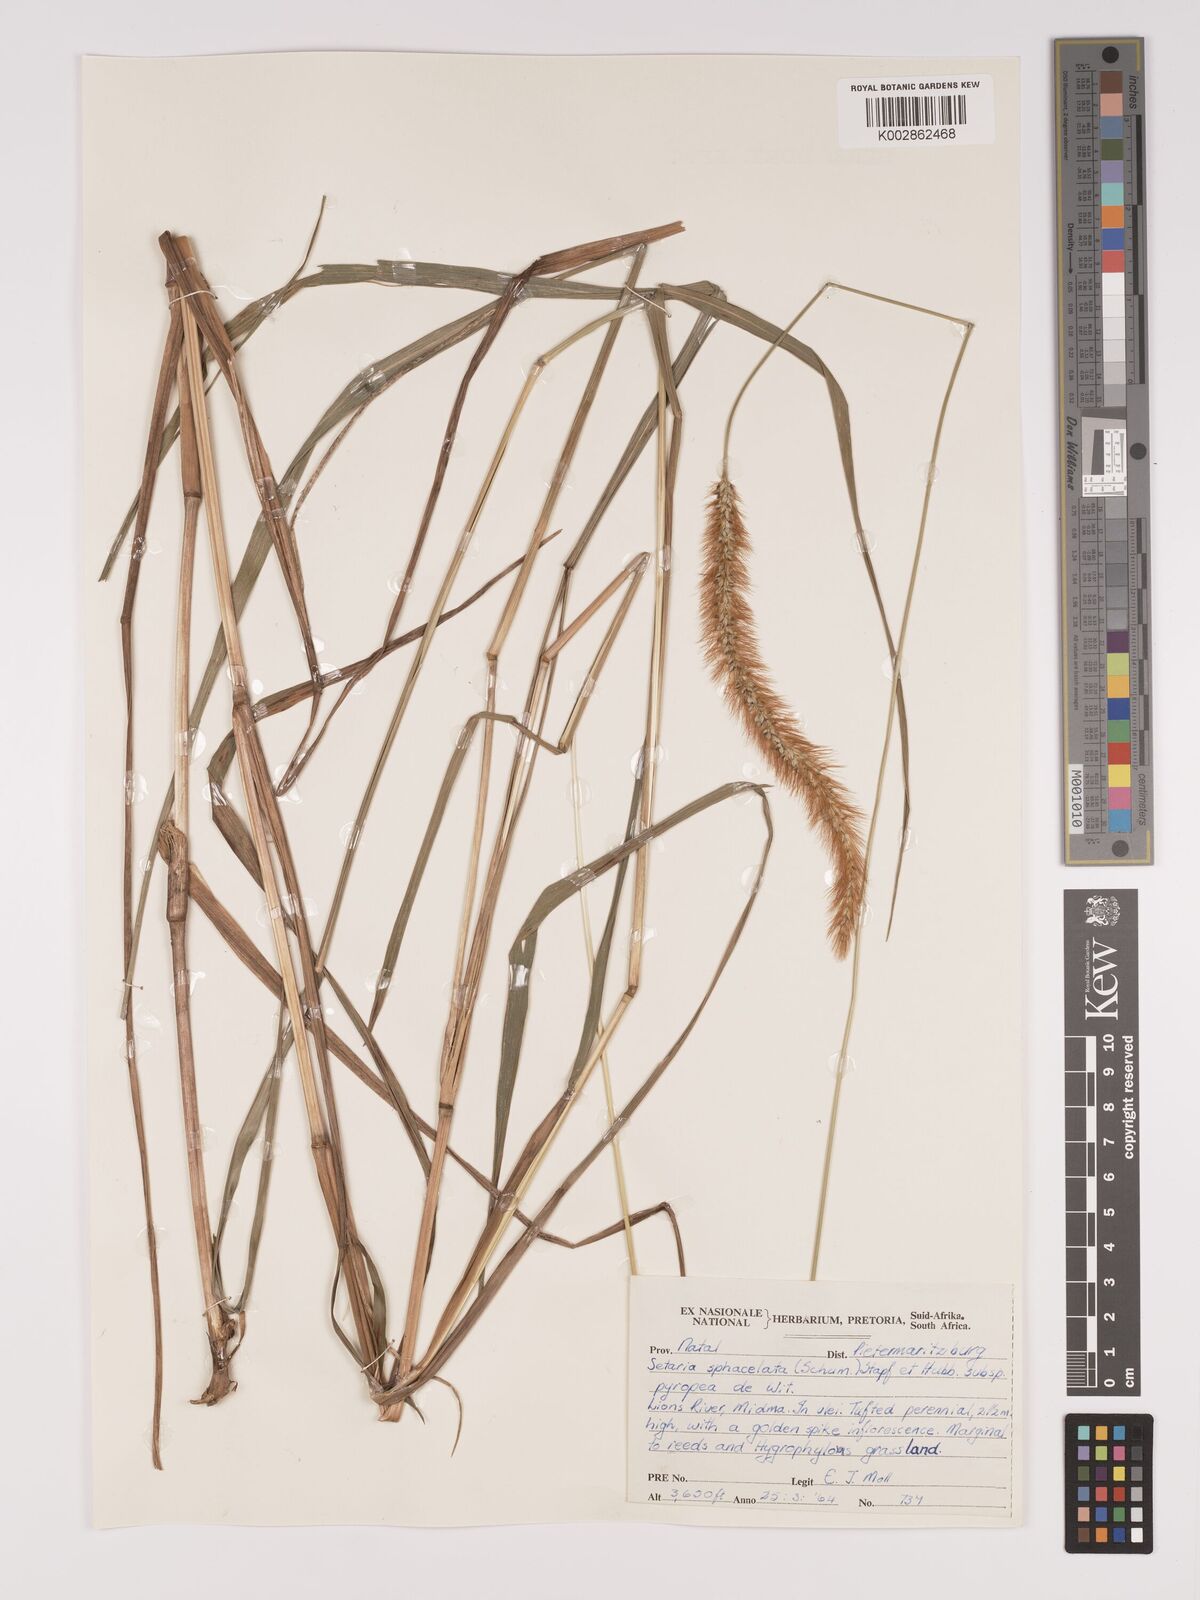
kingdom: Plantae
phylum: Tracheophyta
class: Liliopsida
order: Poales
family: Poaceae
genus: Setaria
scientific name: Setaria sphacelata
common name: African bristlegrass
